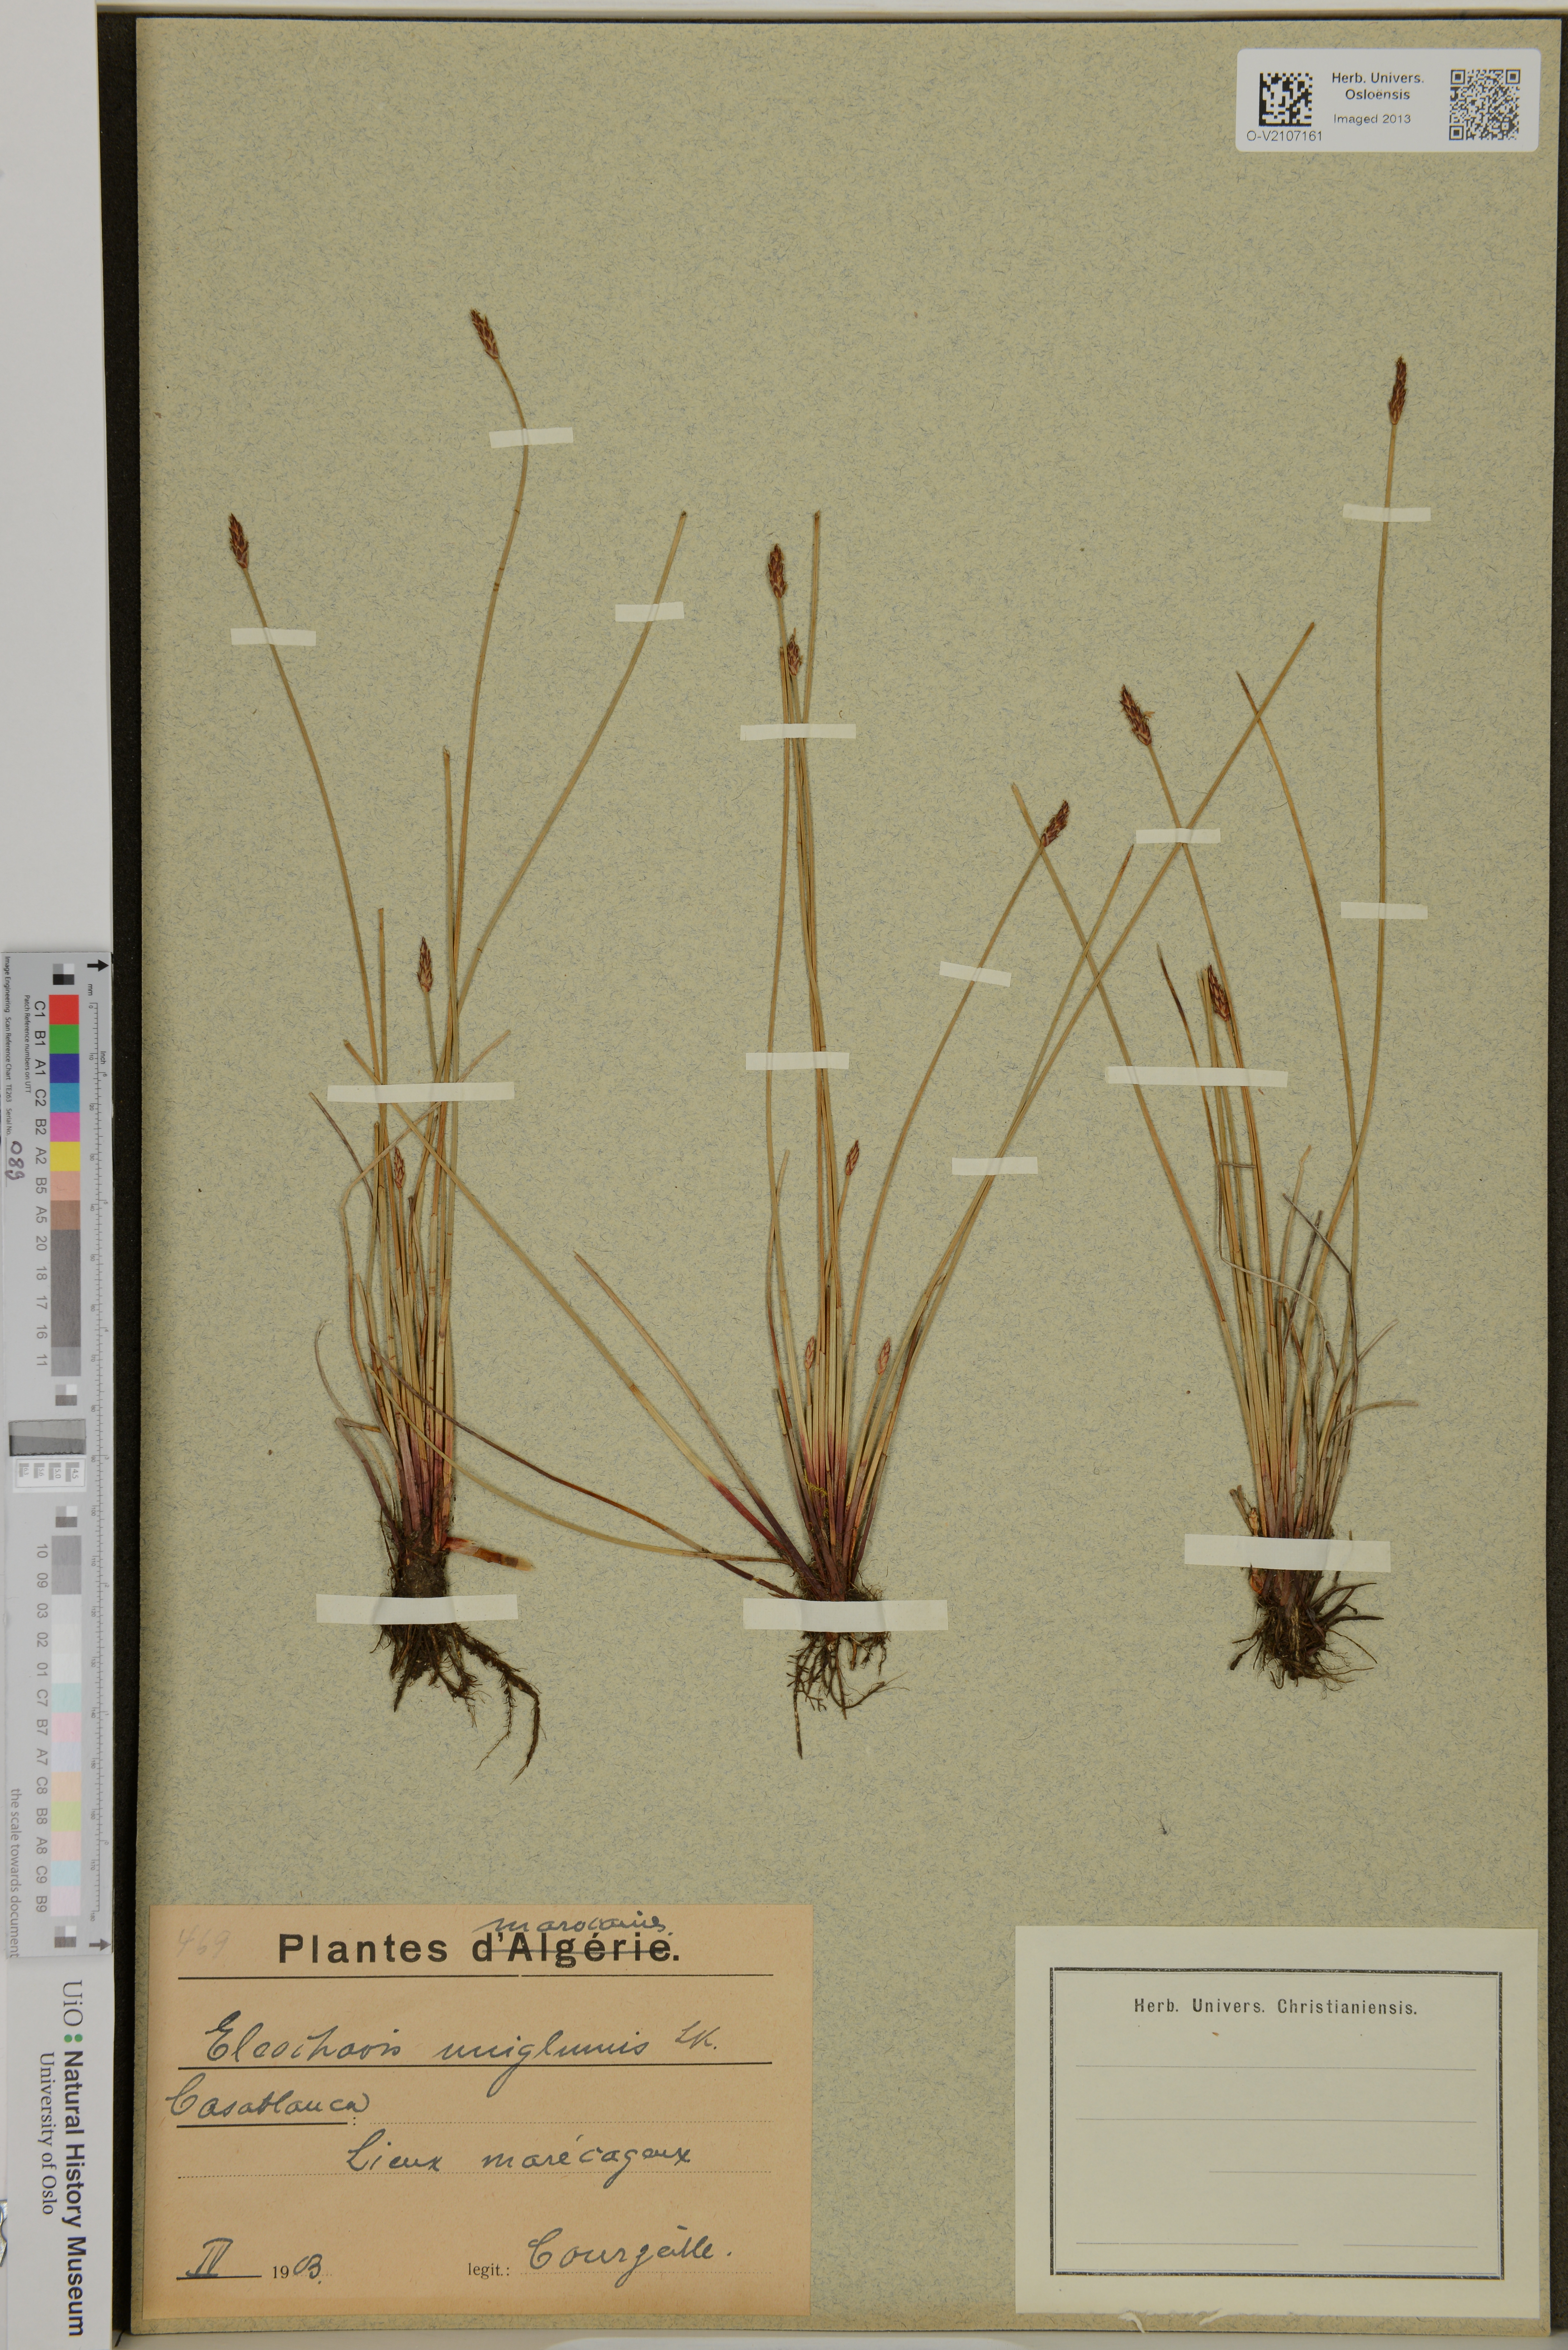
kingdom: Plantae
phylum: Tracheophyta
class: Liliopsida
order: Poales
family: Cyperaceae
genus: Eleocharis
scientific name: Eleocharis uniglumis
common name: Slender spike-rush
